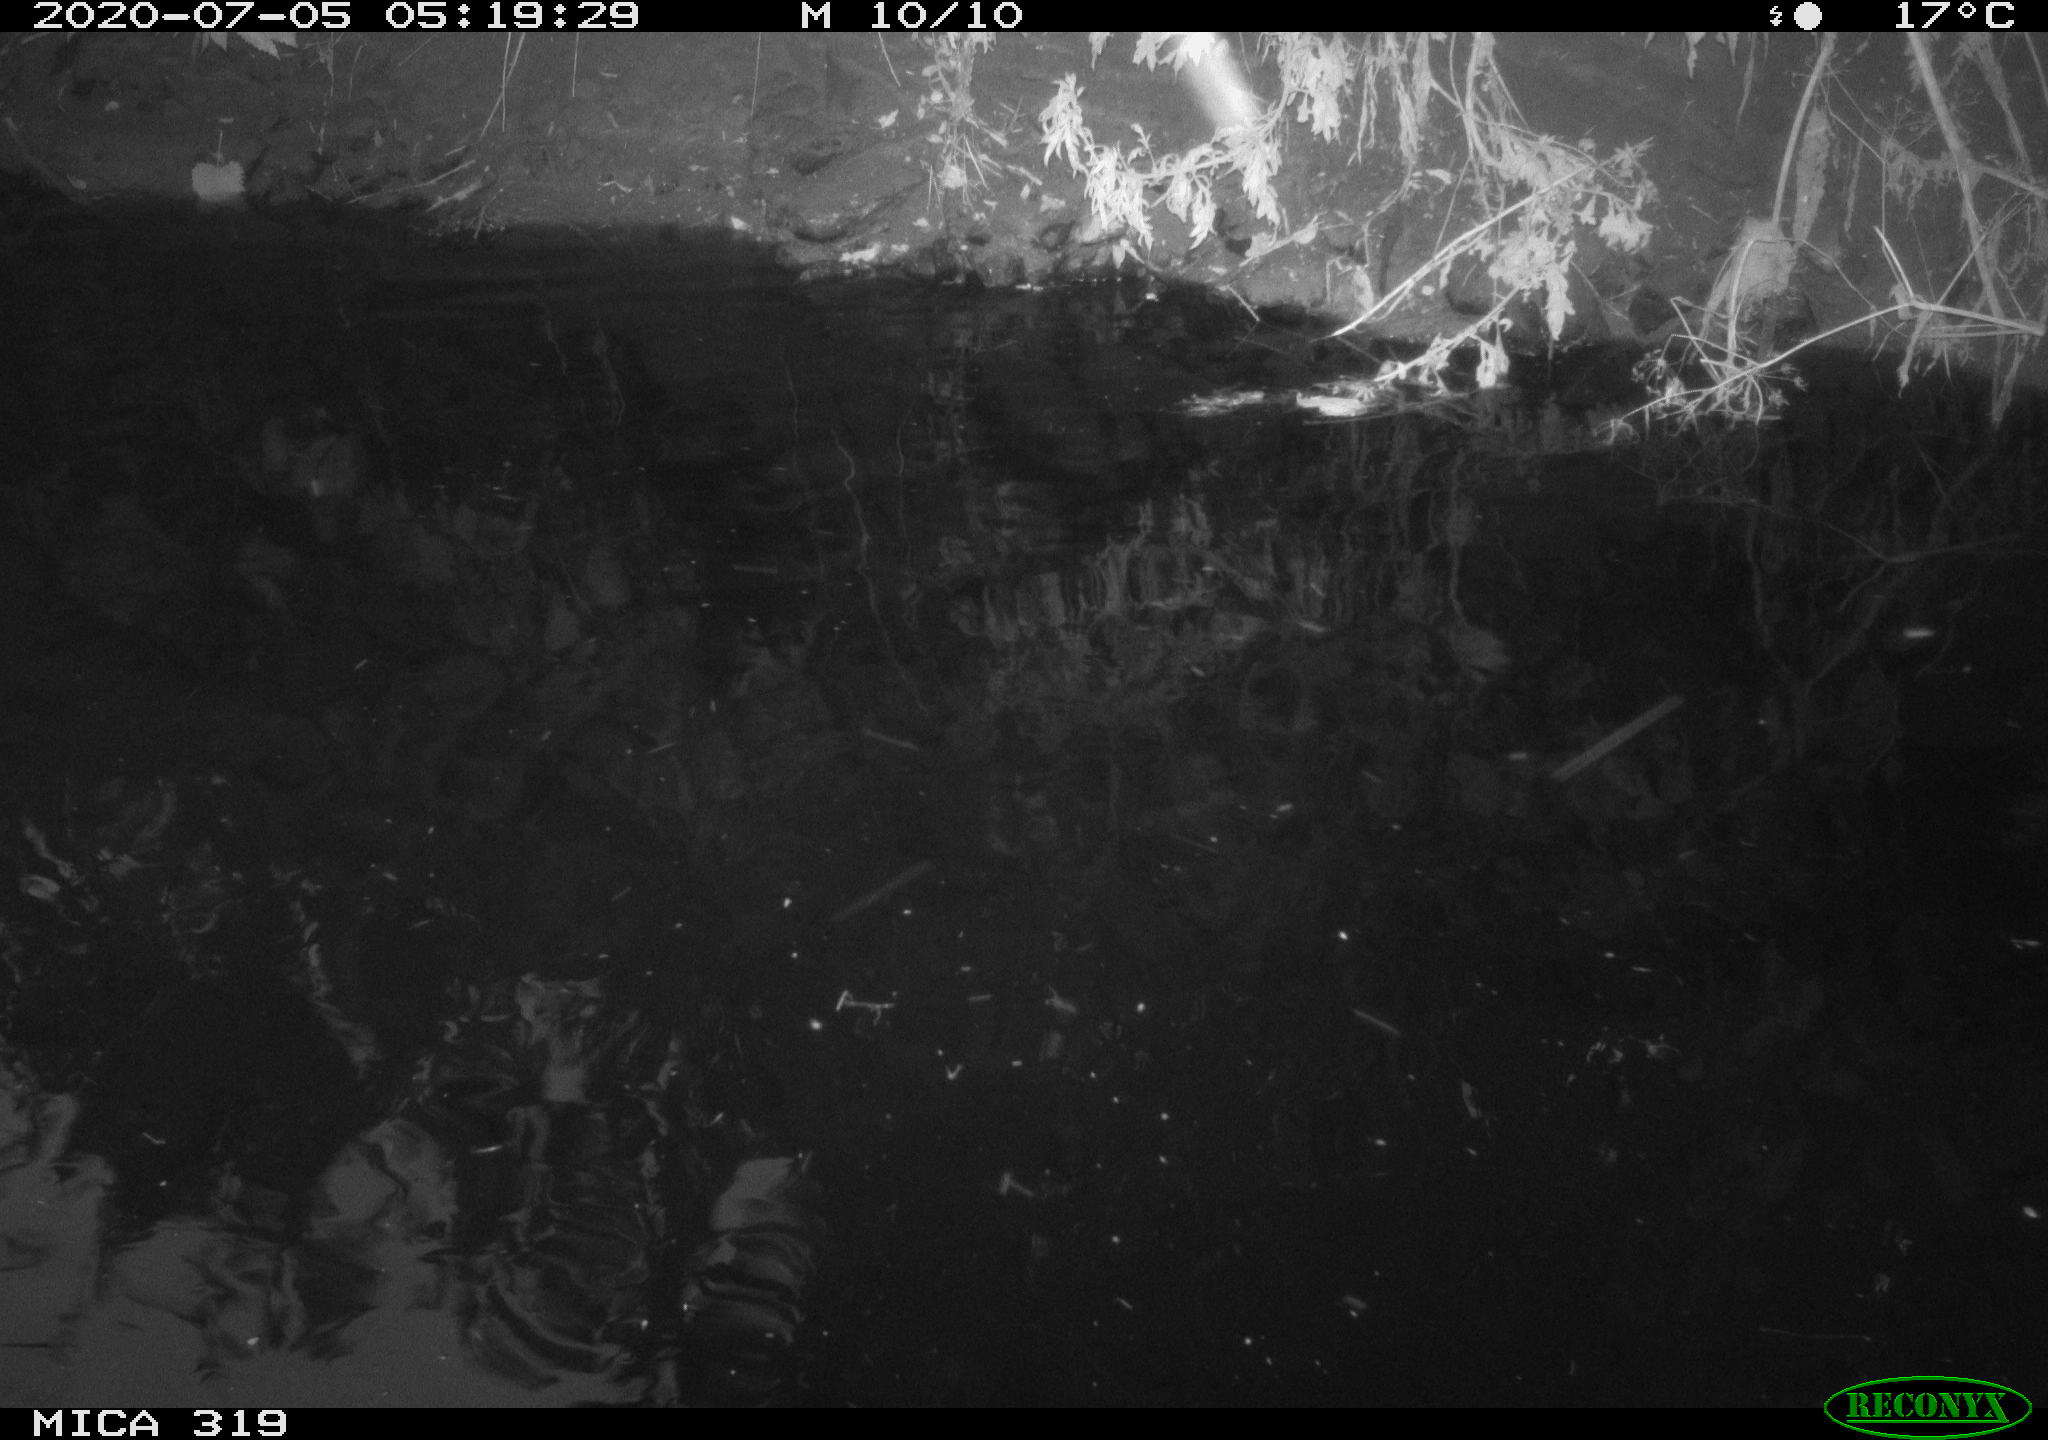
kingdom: Animalia
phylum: Chordata
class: Aves
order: Anseriformes
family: Anatidae
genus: Anas
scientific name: Anas platyrhynchos
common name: Mallard
